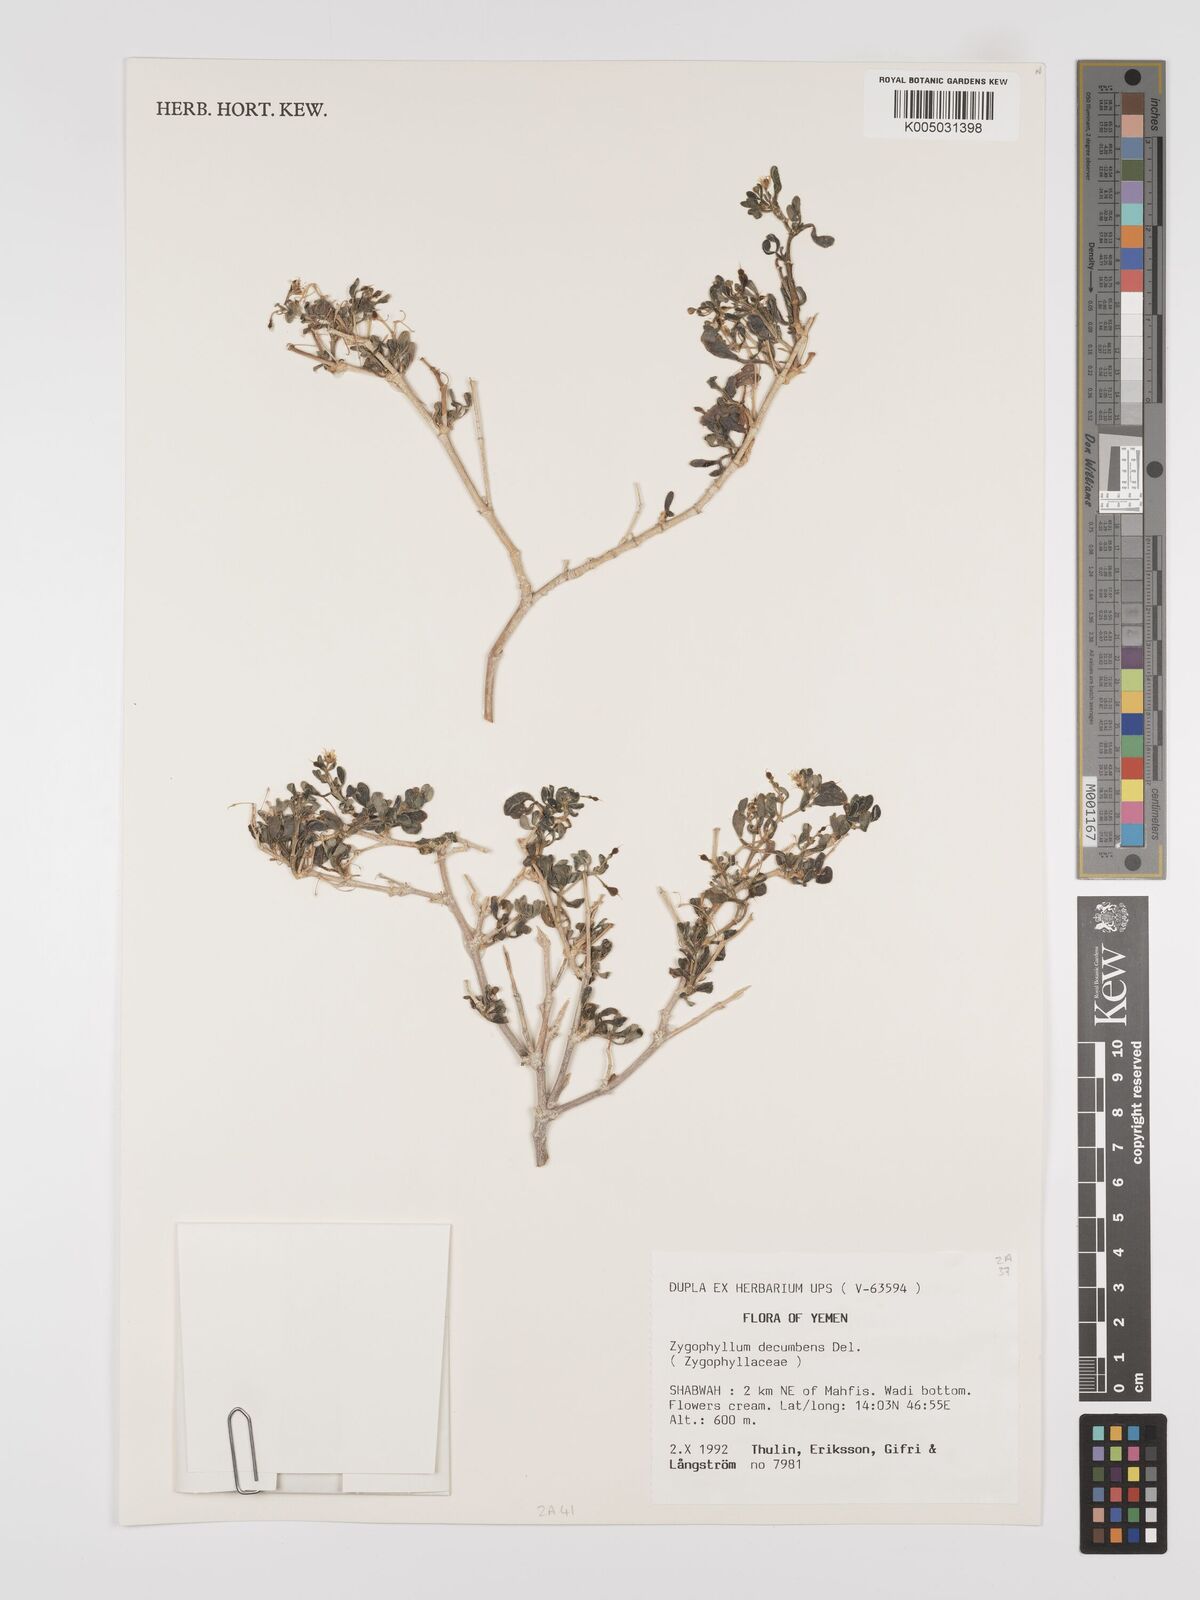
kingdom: Plantae
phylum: Tracheophyta
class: Magnoliopsida
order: Zygophyllales
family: Zygophyllaceae
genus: Tetraena
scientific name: Tetraena decumbens
